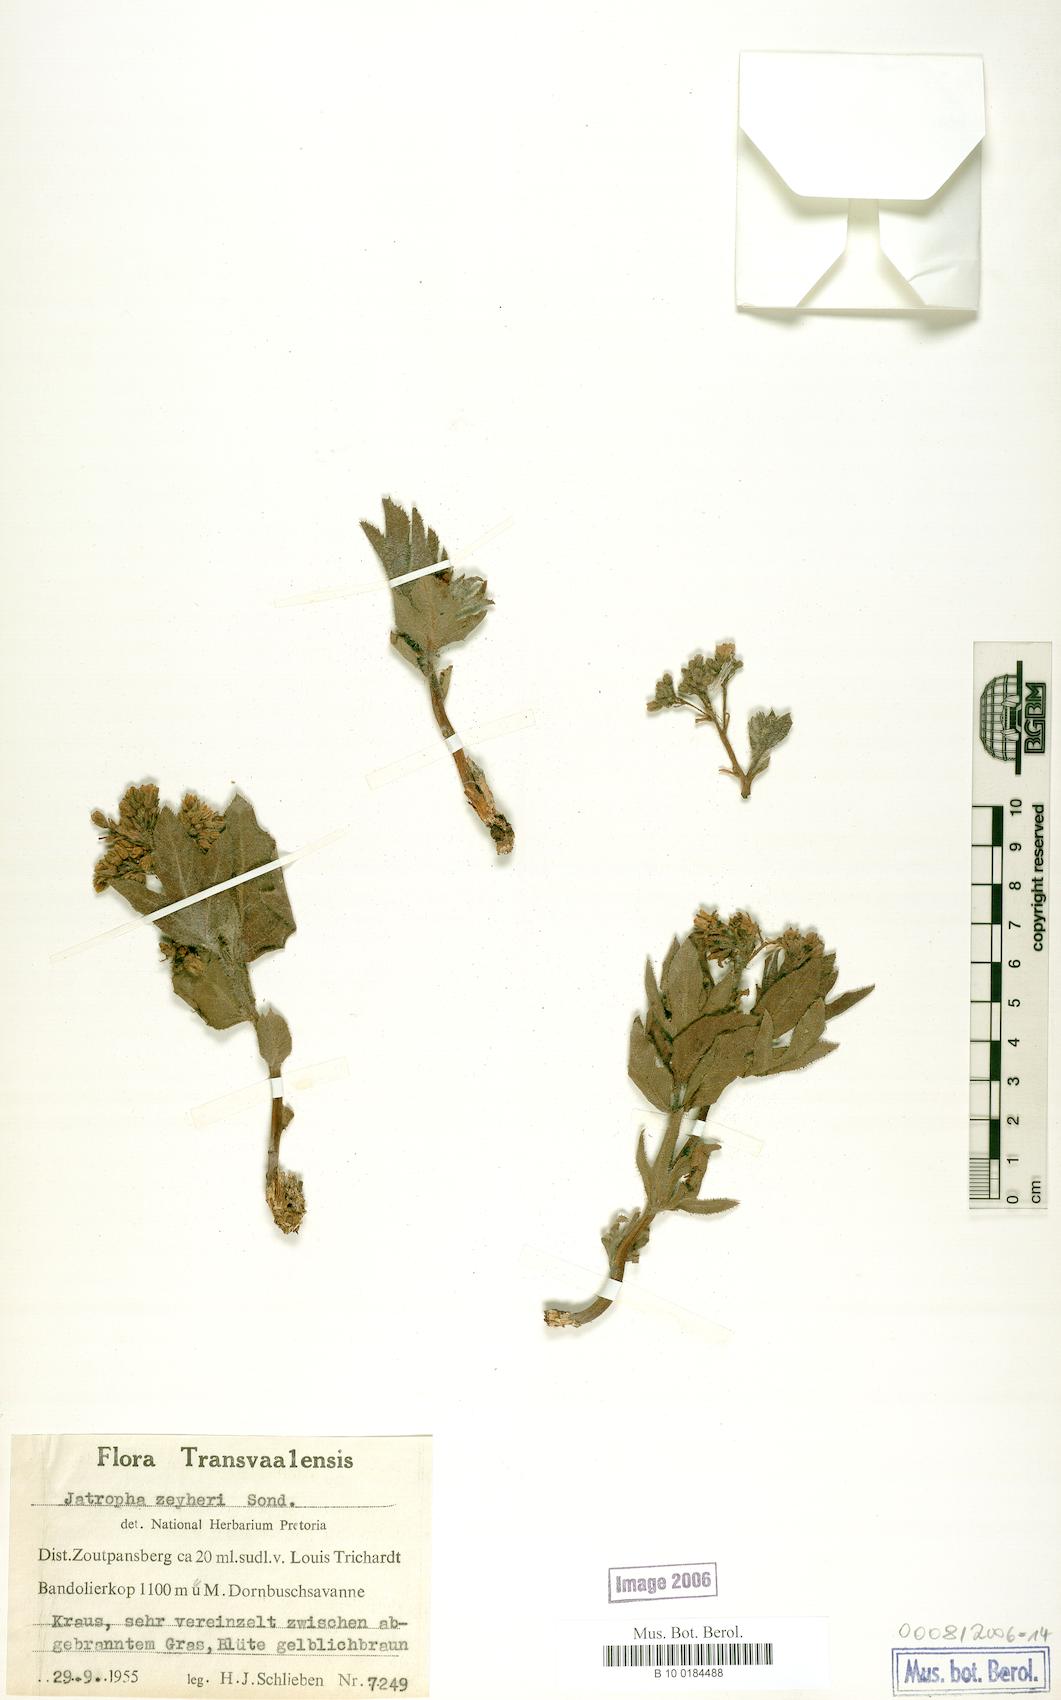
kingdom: Plantae
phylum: Tracheophyta
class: Magnoliopsida
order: Malpighiales
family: Euphorbiaceae
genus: Jatropha
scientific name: Jatropha zeyheri
